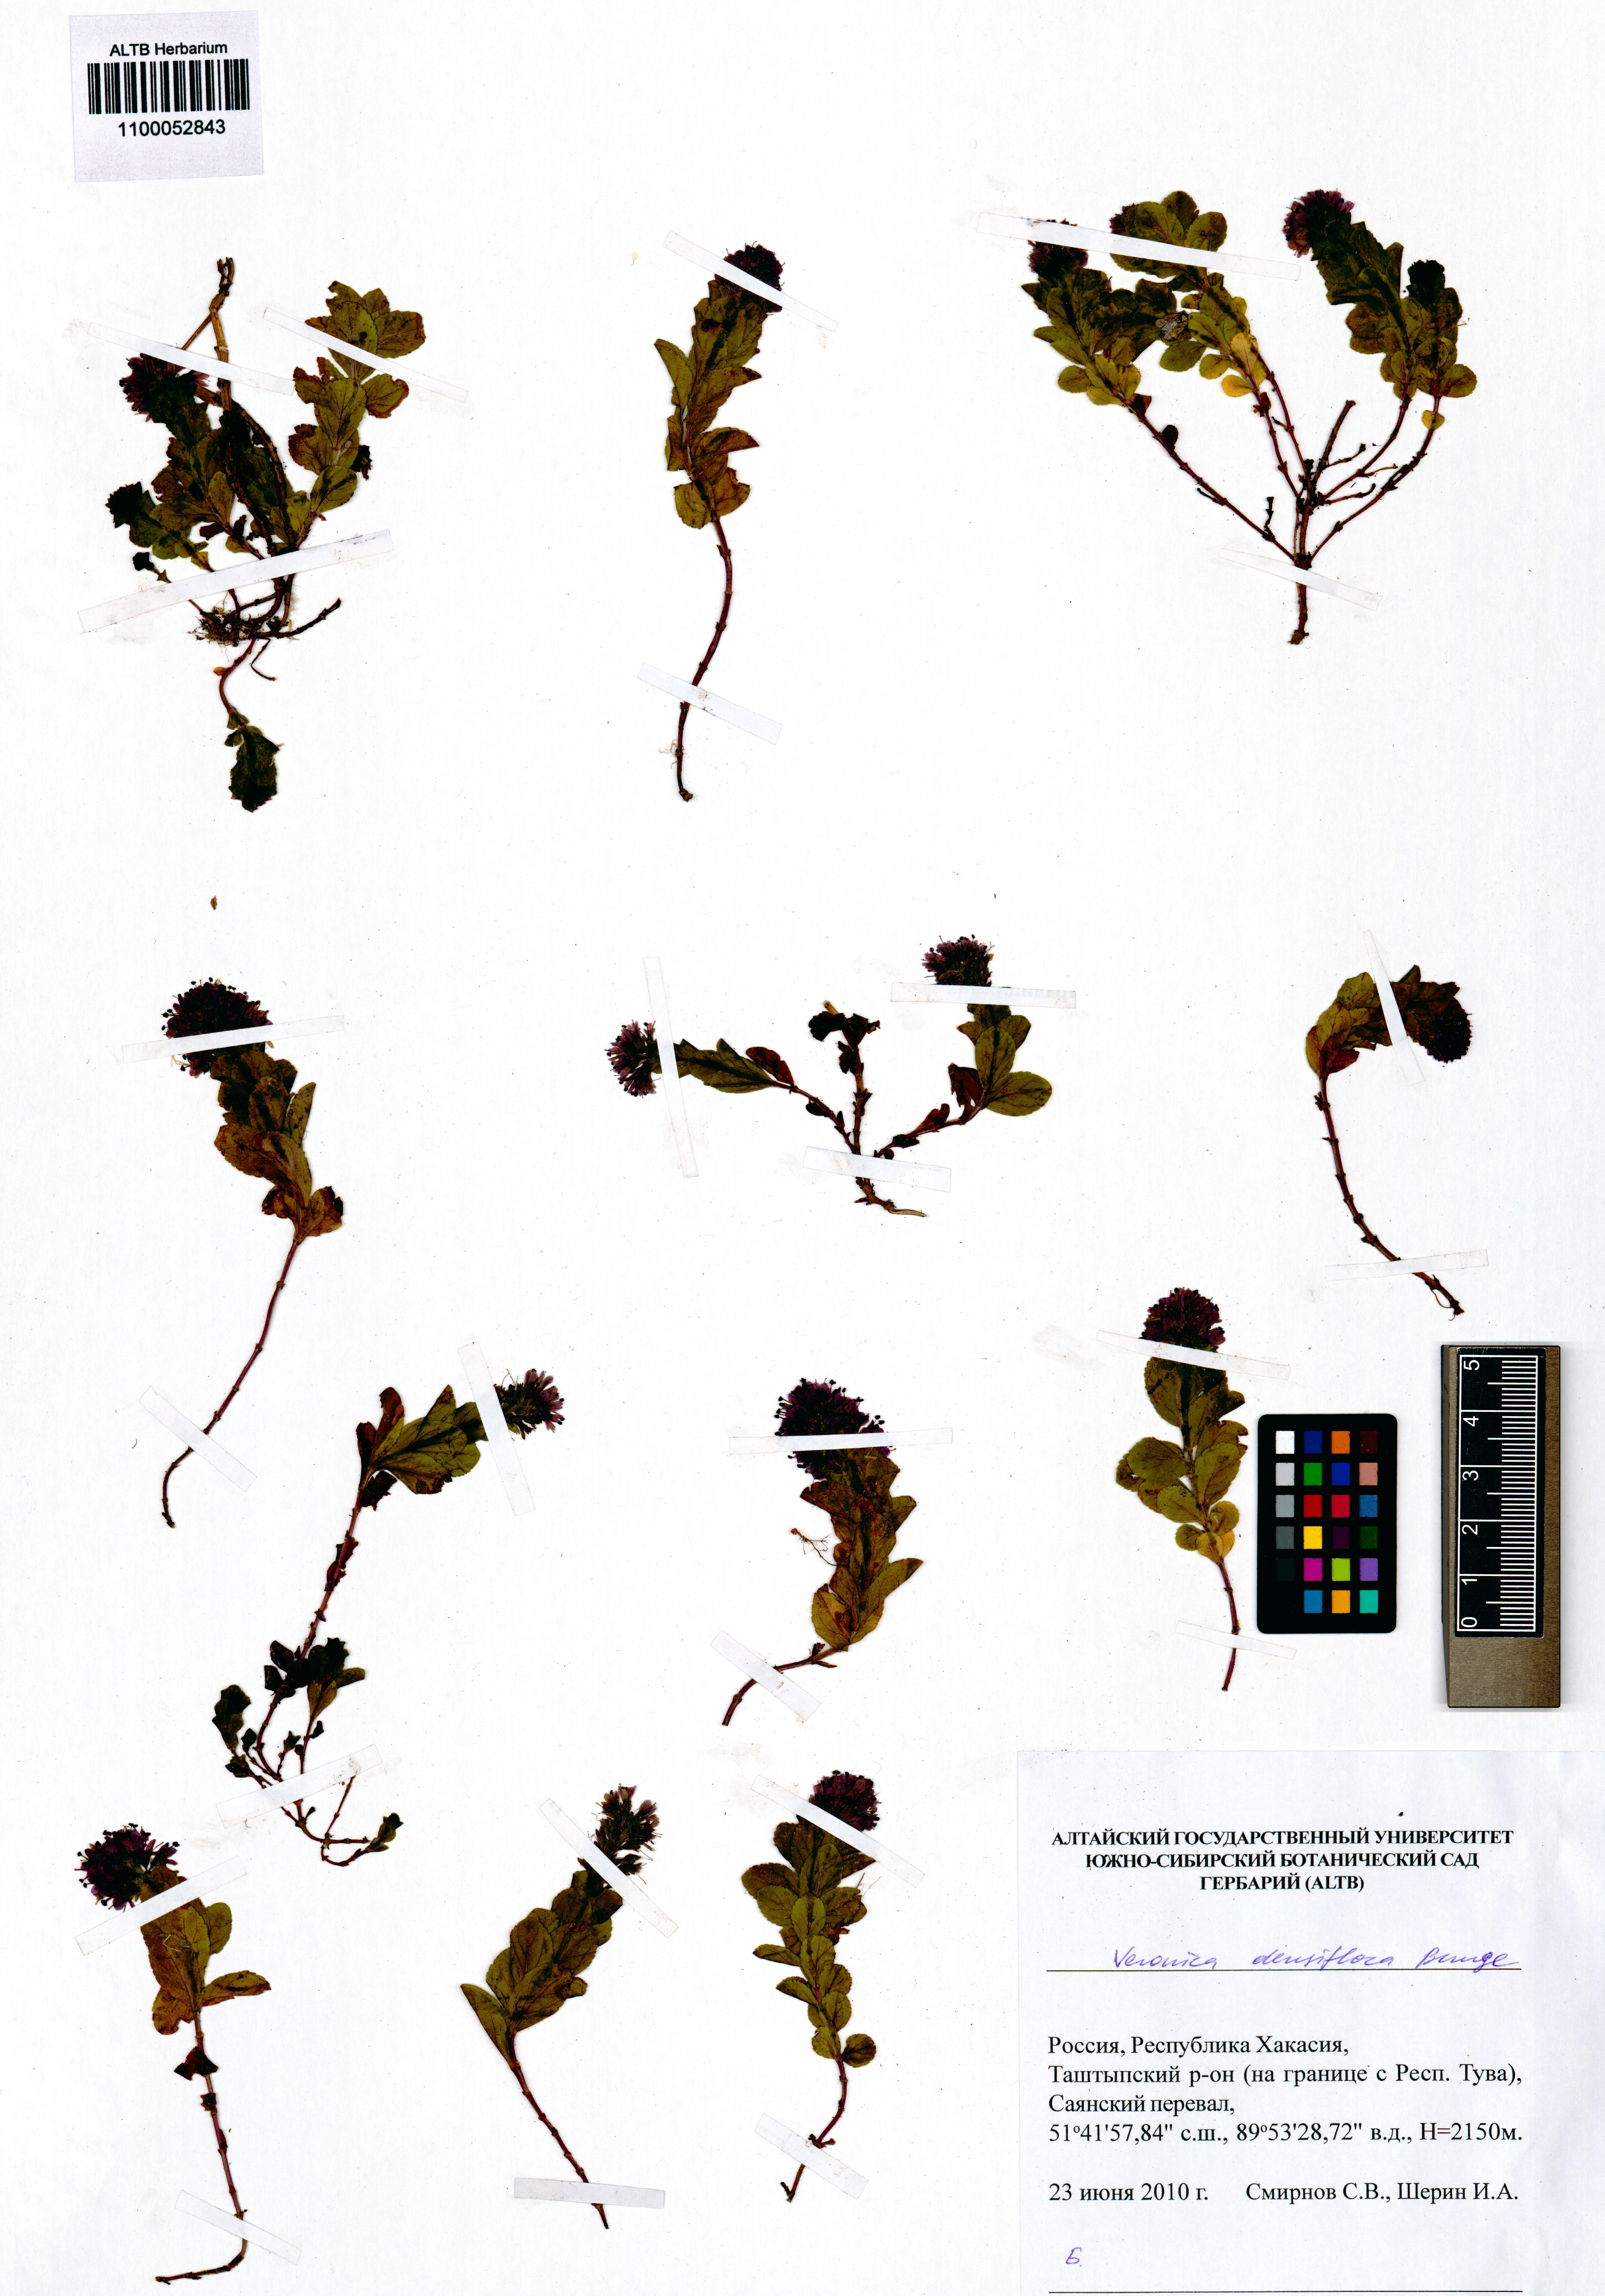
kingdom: Plantae
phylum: Tracheophyta
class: Magnoliopsida
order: Lamiales
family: Plantaginaceae
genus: Veronica
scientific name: Veronica densiflora
